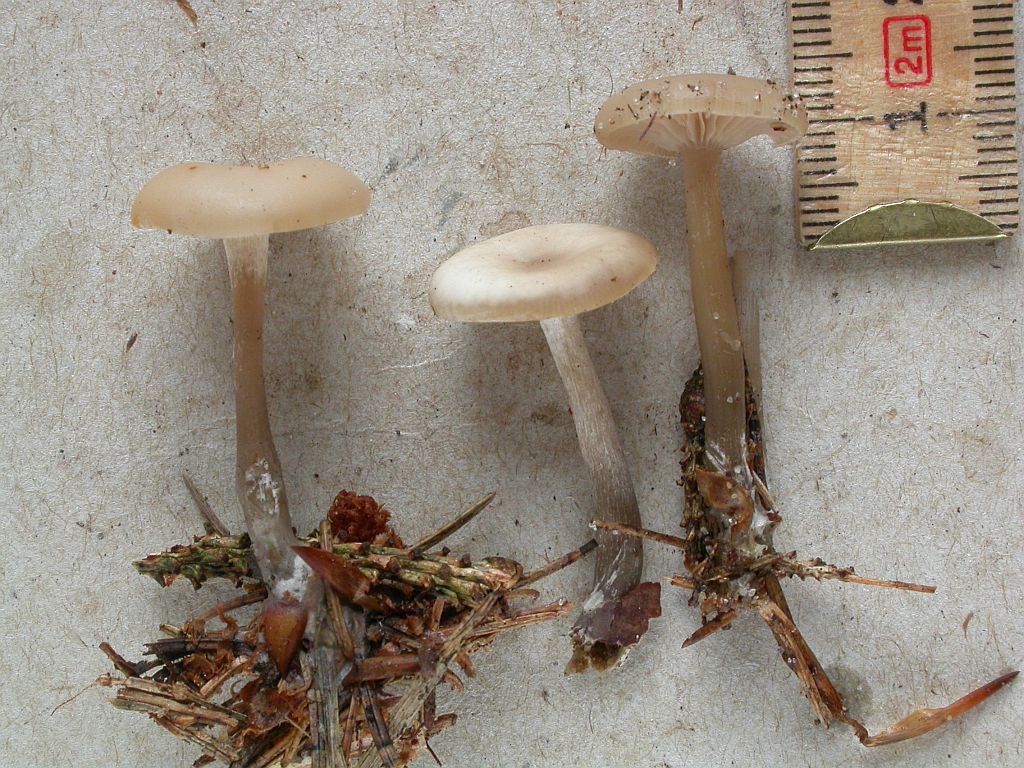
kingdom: Fungi
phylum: Basidiomycota
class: Agaricomycetes
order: Agaricales
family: Tricholomataceae
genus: Clitocybe
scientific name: Clitocybe metachroa
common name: grå tragthat
